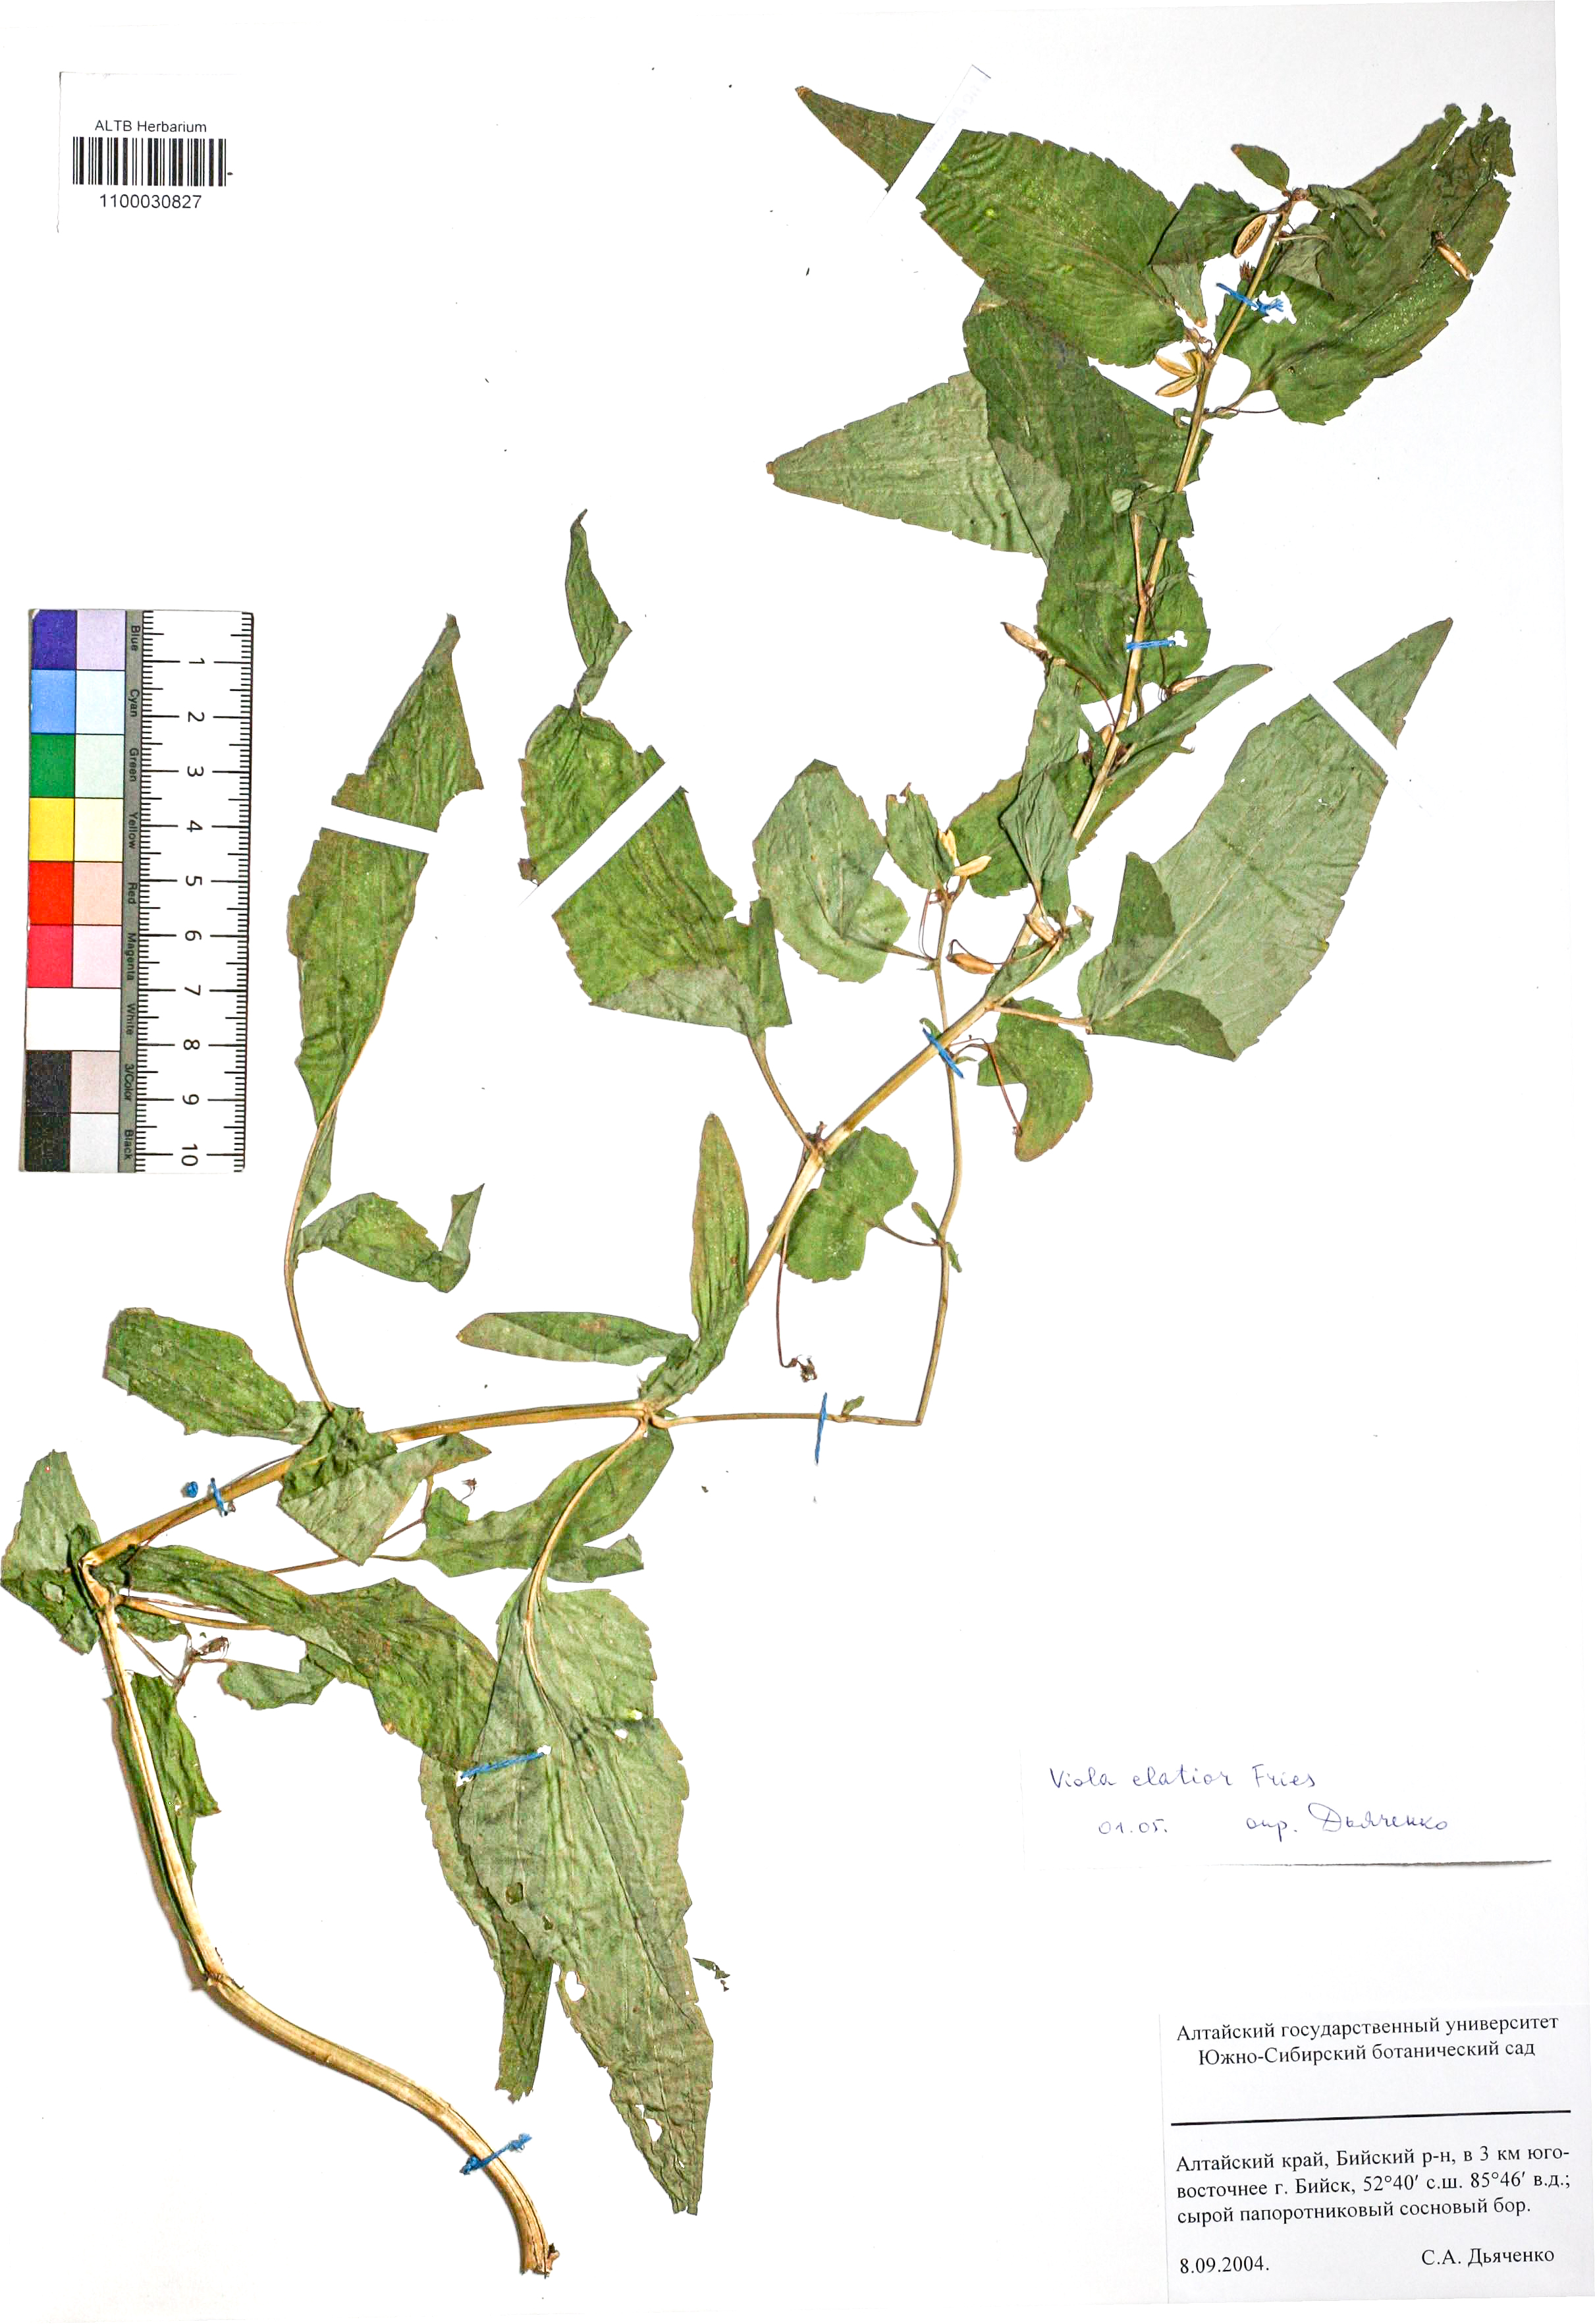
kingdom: Plantae
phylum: Tracheophyta
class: Magnoliopsida
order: Malpighiales
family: Violaceae
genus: Viola
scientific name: Viola elatior
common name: Tall violet
